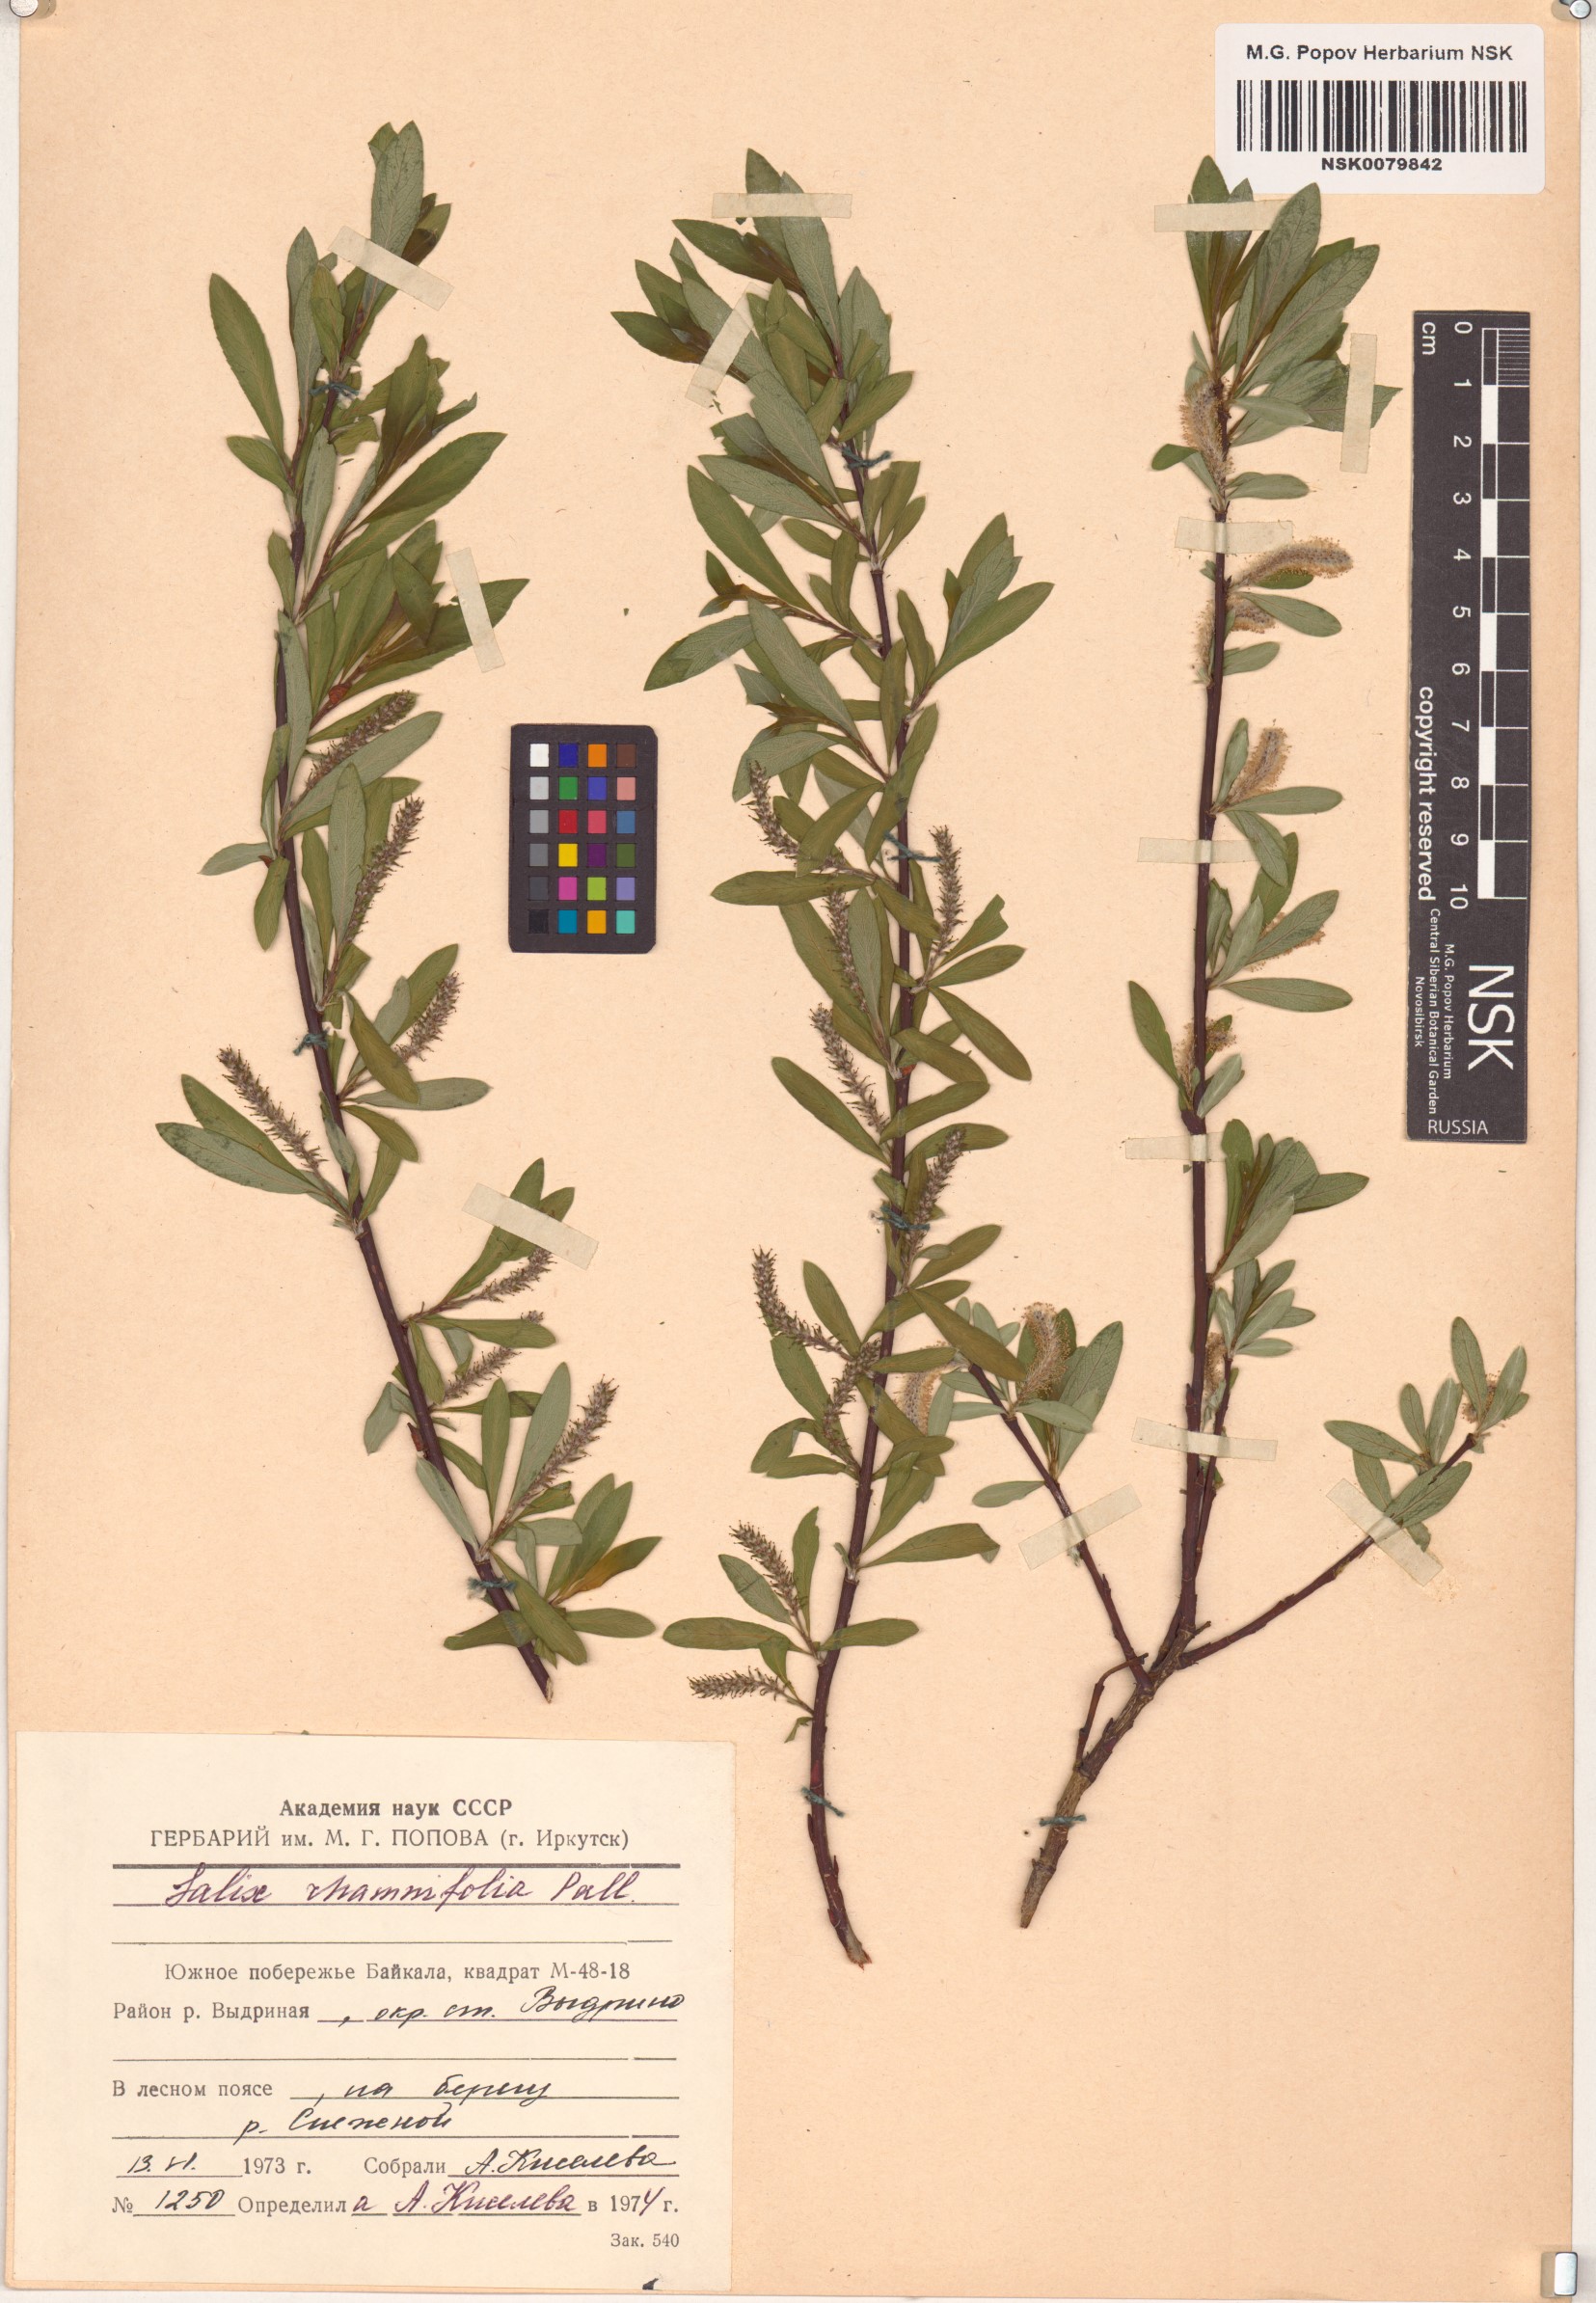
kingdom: Plantae
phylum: Tracheophyta
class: Magnoliopsida
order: Malpighiales
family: Salicaceae
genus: Salix
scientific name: Salix rhamnifolia
